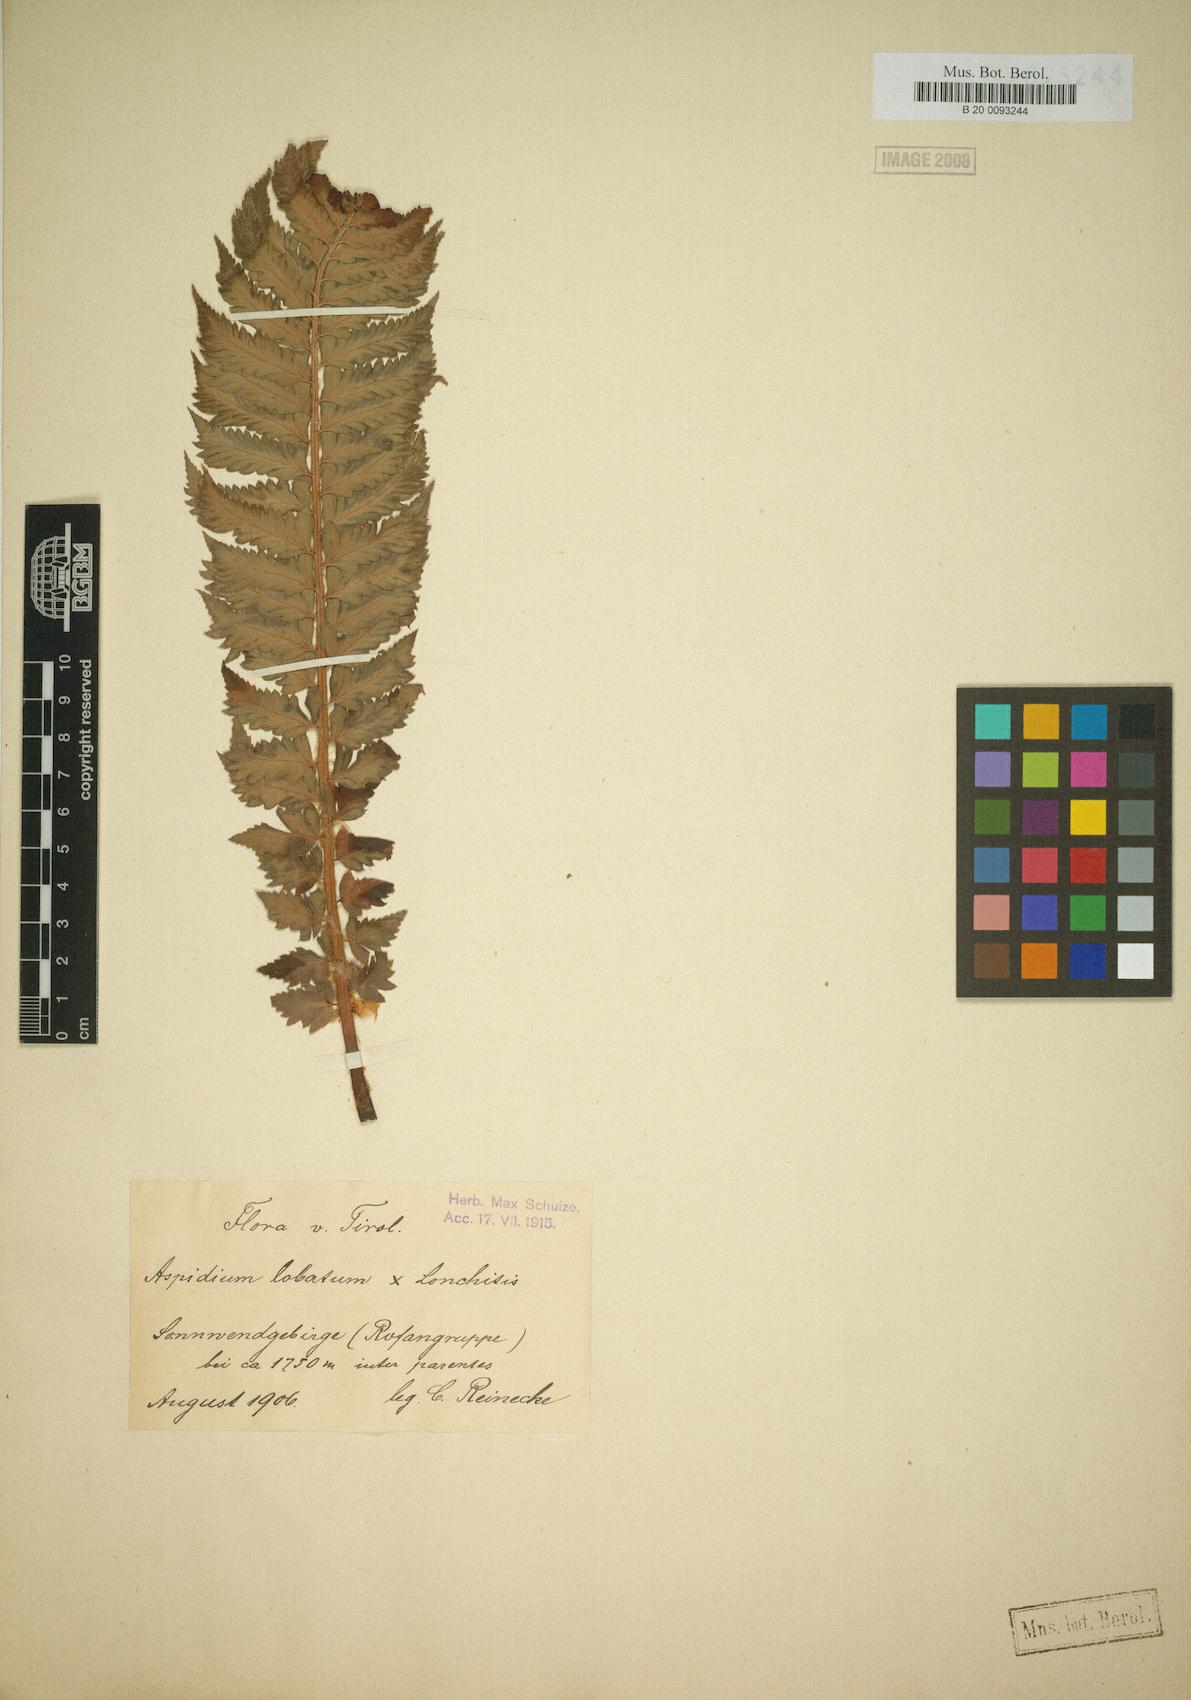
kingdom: Plantae
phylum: Tracheophyta
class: Polypodiopsida
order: Polypodiales
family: Dryopteridaceae
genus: Polystichum
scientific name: Polystichum lonchitis
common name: Holly fern
